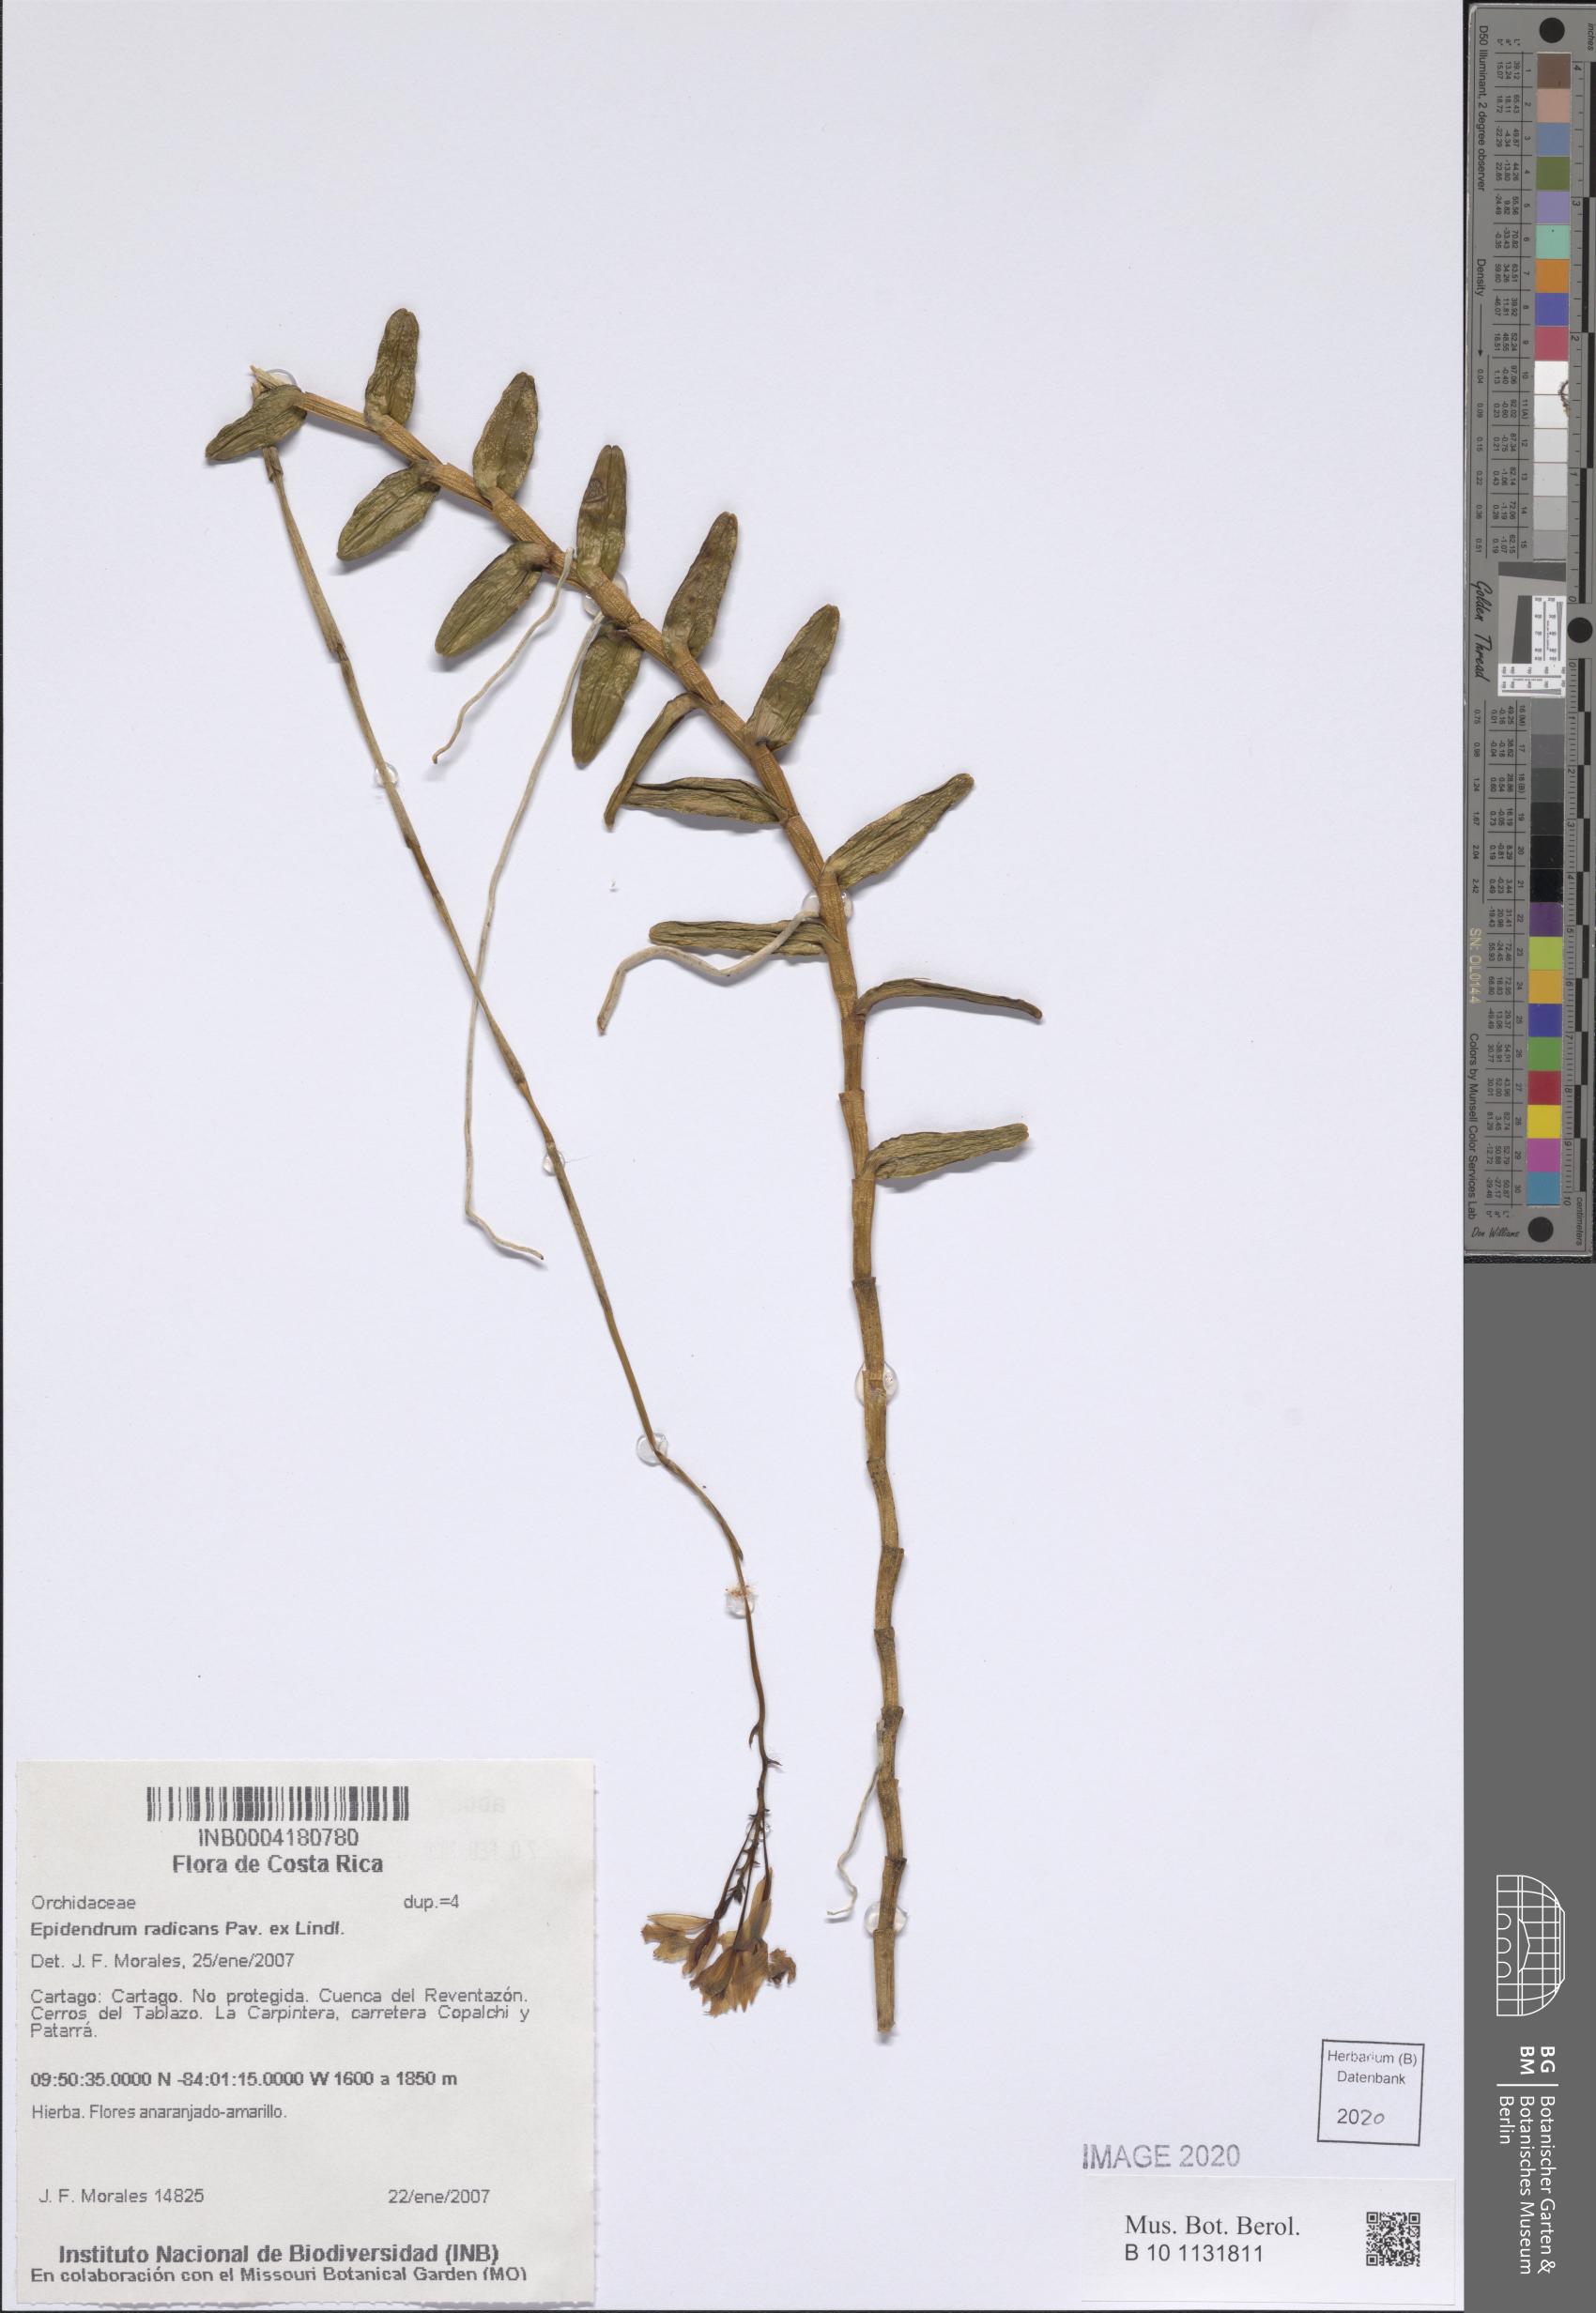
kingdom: Plantae
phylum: Tracheophyta
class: Liliopsida
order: Asparagales
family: Orchidaceae
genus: Epidendrum
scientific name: Epidendrum radicans
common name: Fire star orchid
